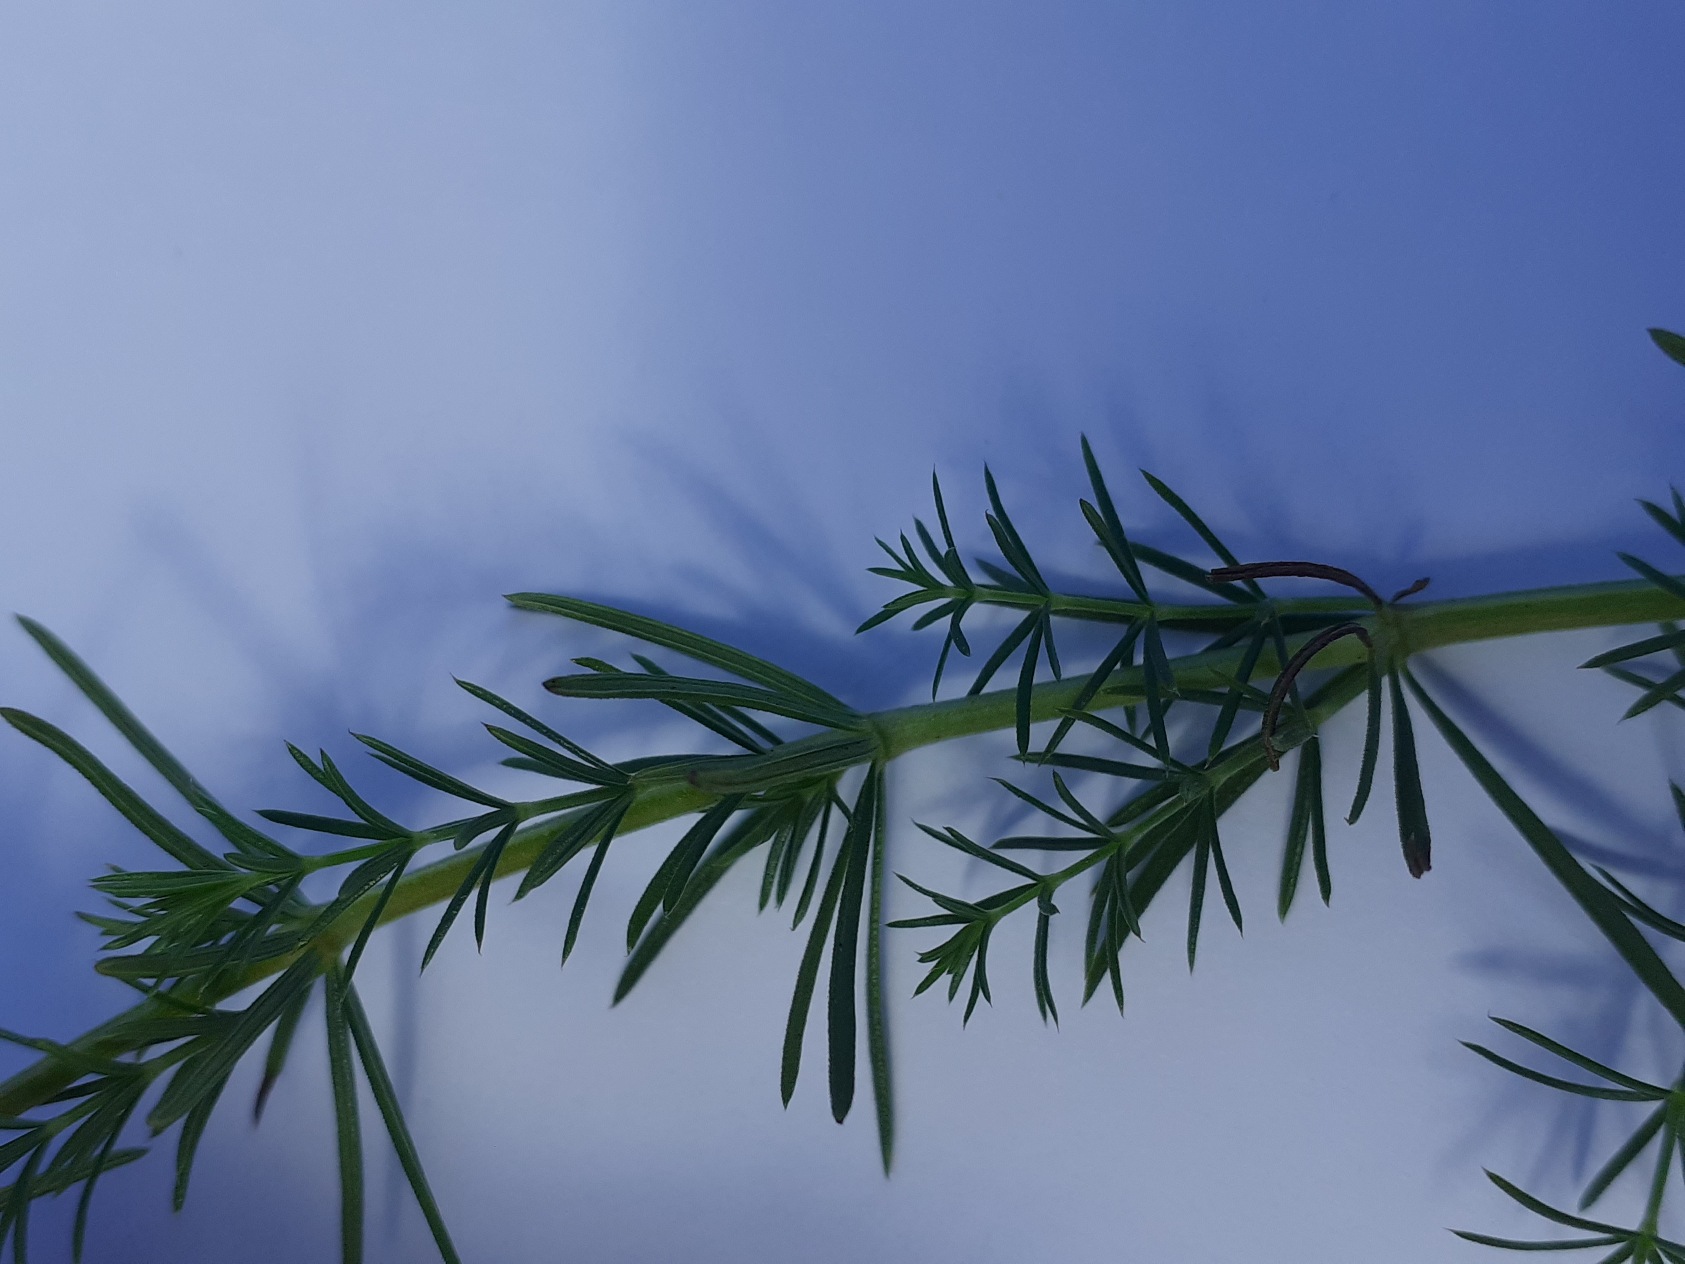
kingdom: Plantae
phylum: Tracheophyta
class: Magnoliopsida
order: Gentianales
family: Rubiaceae
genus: Galium
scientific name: Galium verum
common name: Gul snerre
